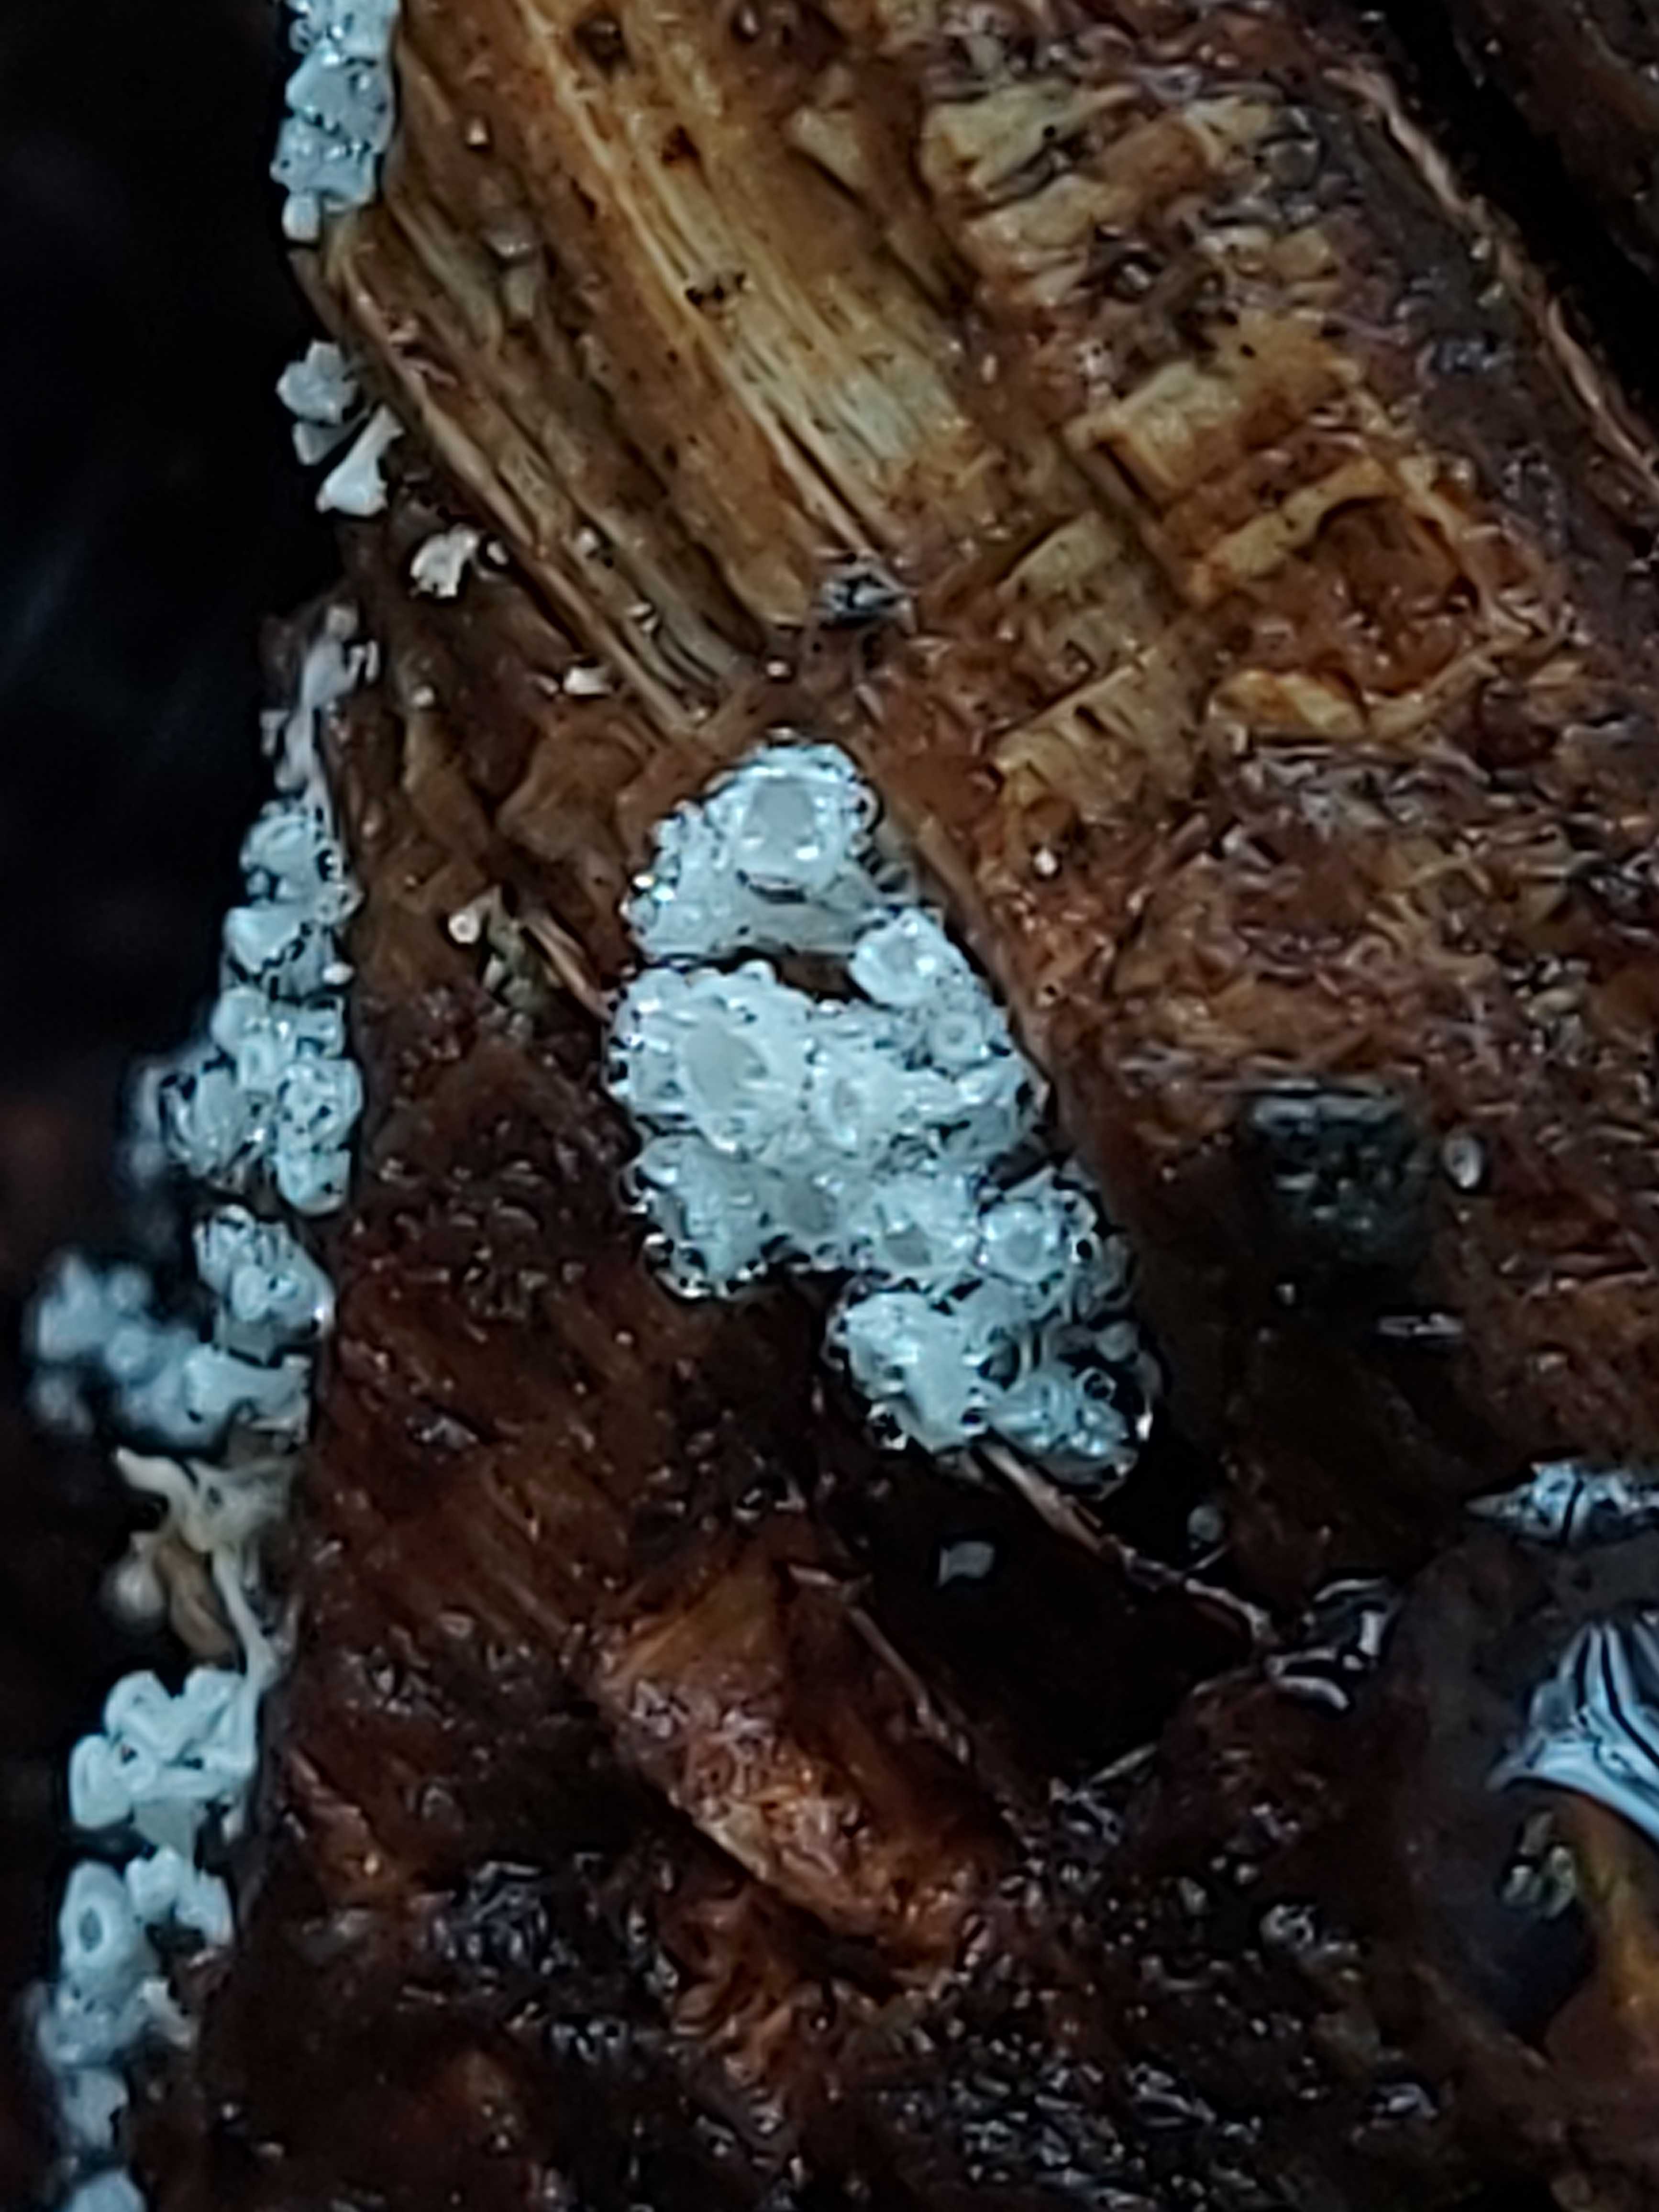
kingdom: Fungi
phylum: Ascomycota
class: Leotiomycetes
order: Helotiales
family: Lachnaceae
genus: Lachnum
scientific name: Lachnum
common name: frynseskive
